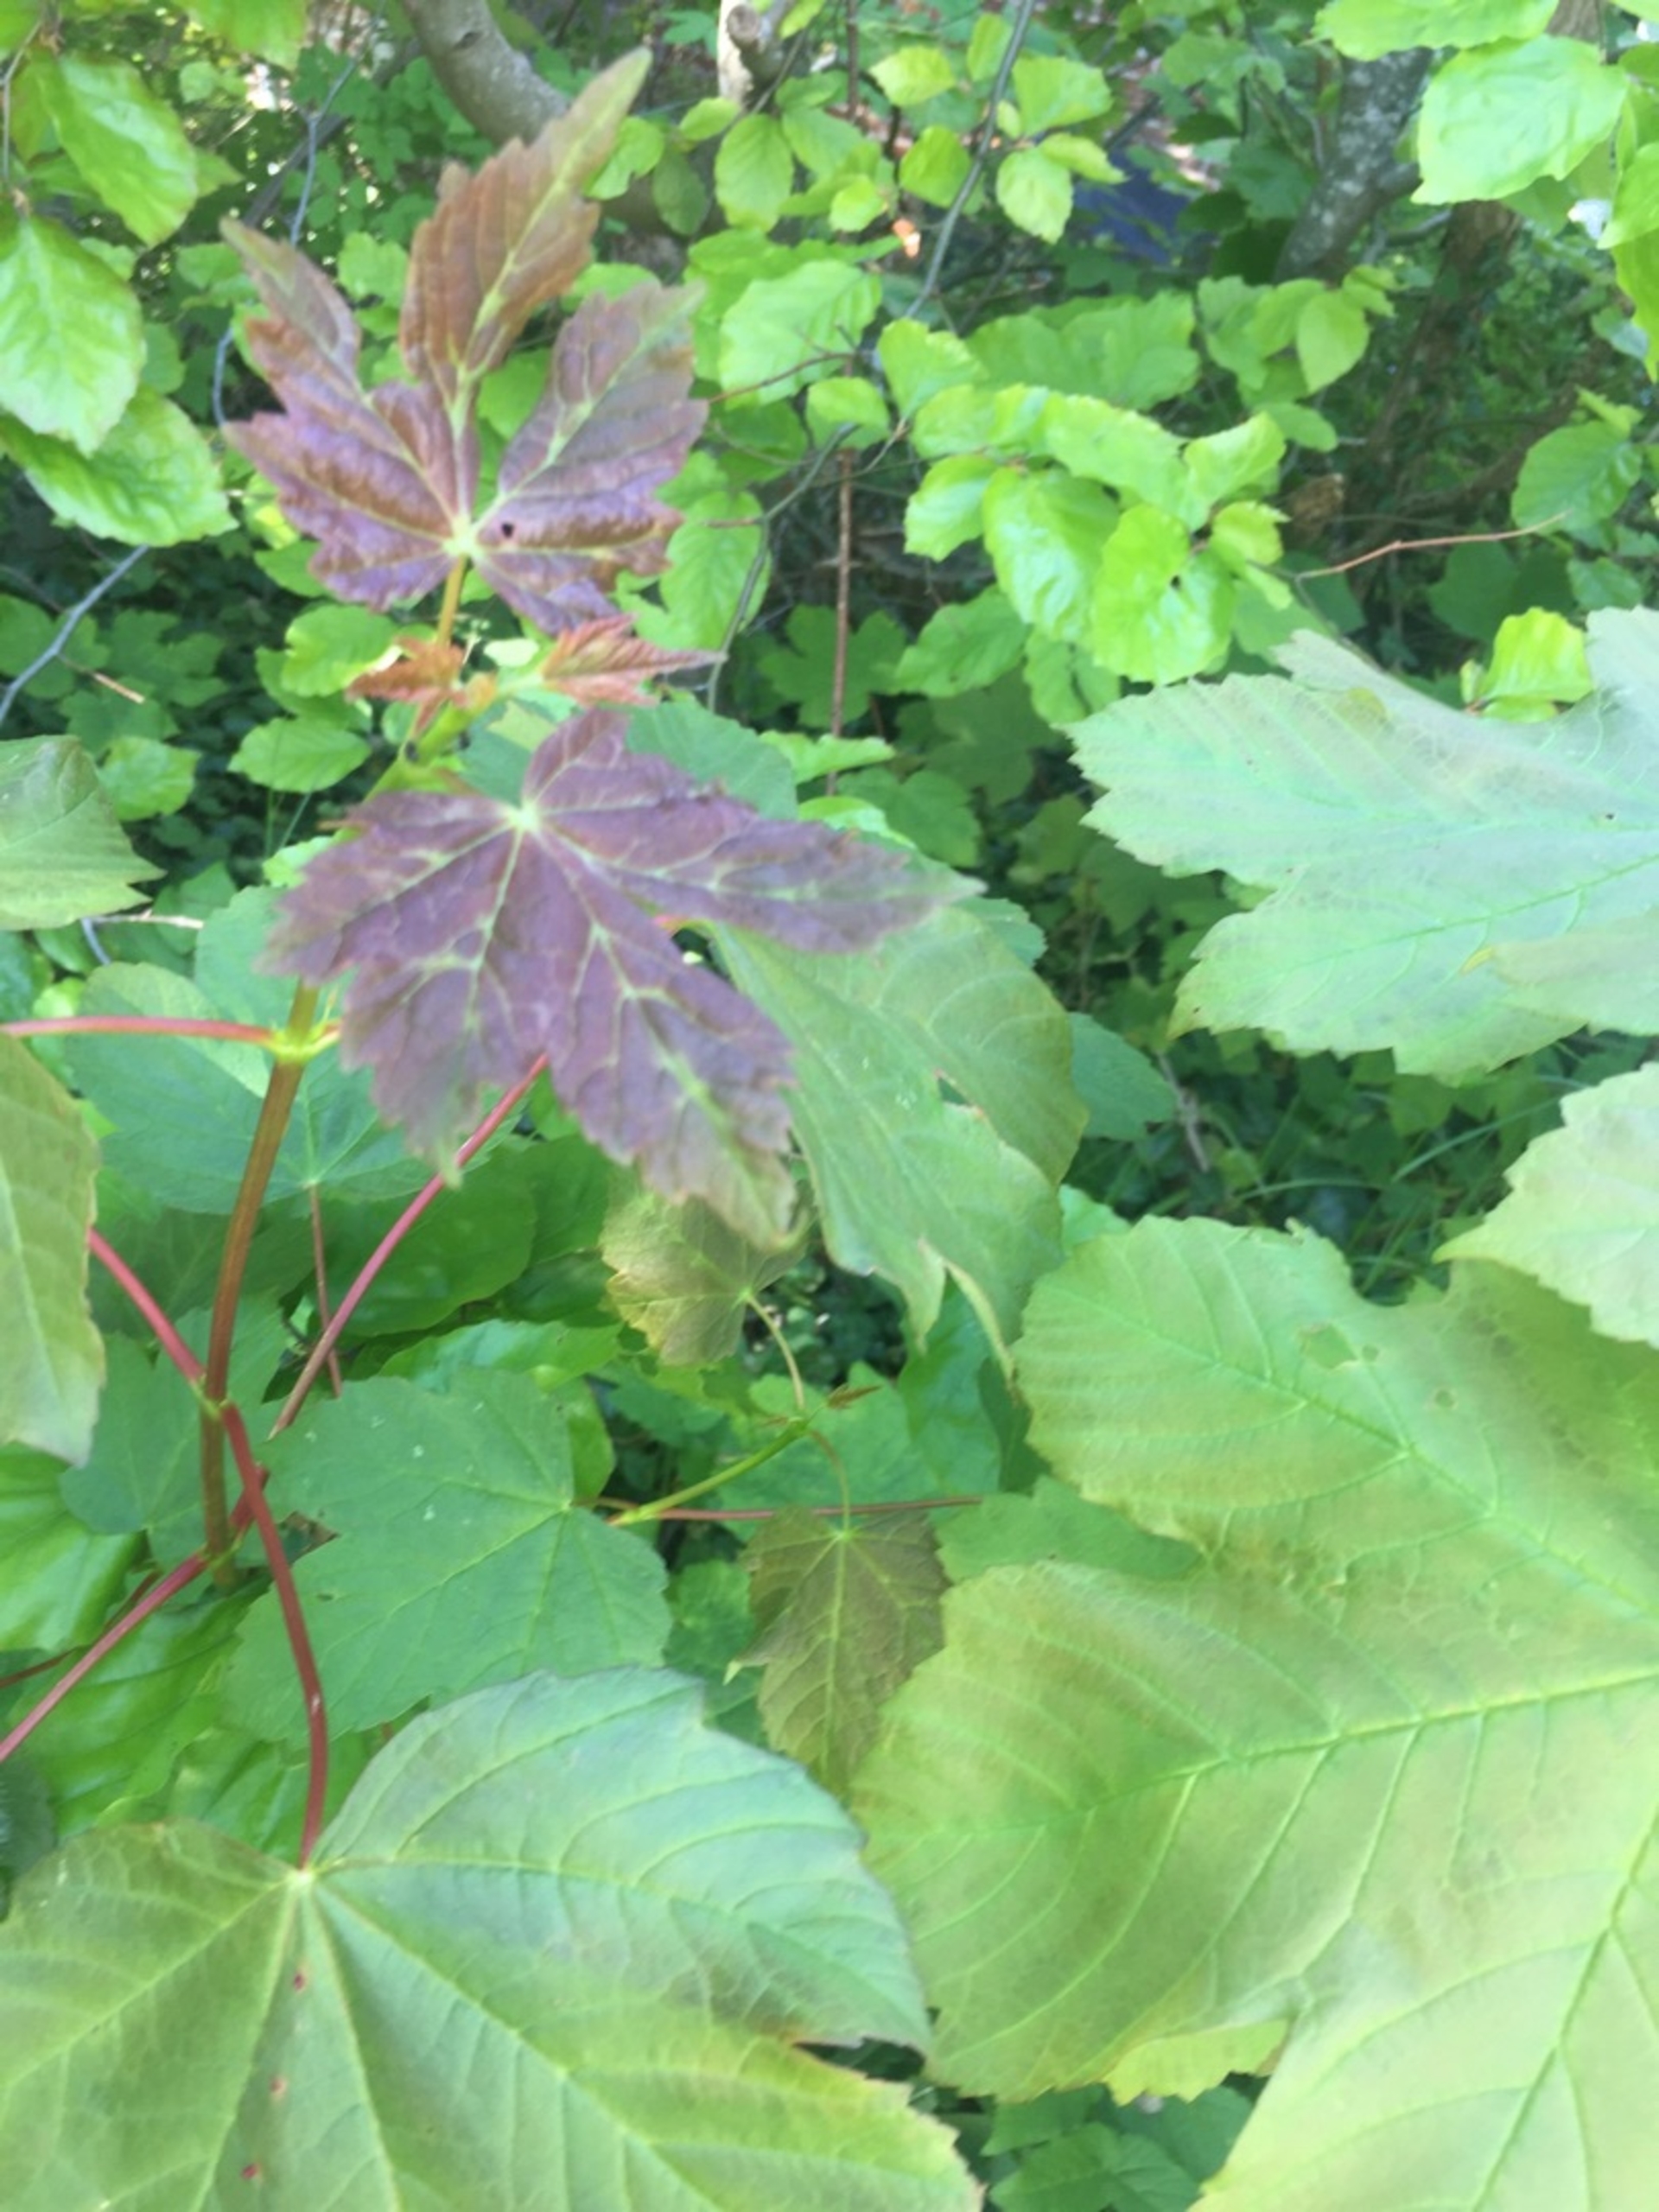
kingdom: Plantae
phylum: Tracheophyta
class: Magnoliopsida
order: Sapindales
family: Sapindaceae
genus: Acer
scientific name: Acer pseudoplatanus
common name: Ahorn
